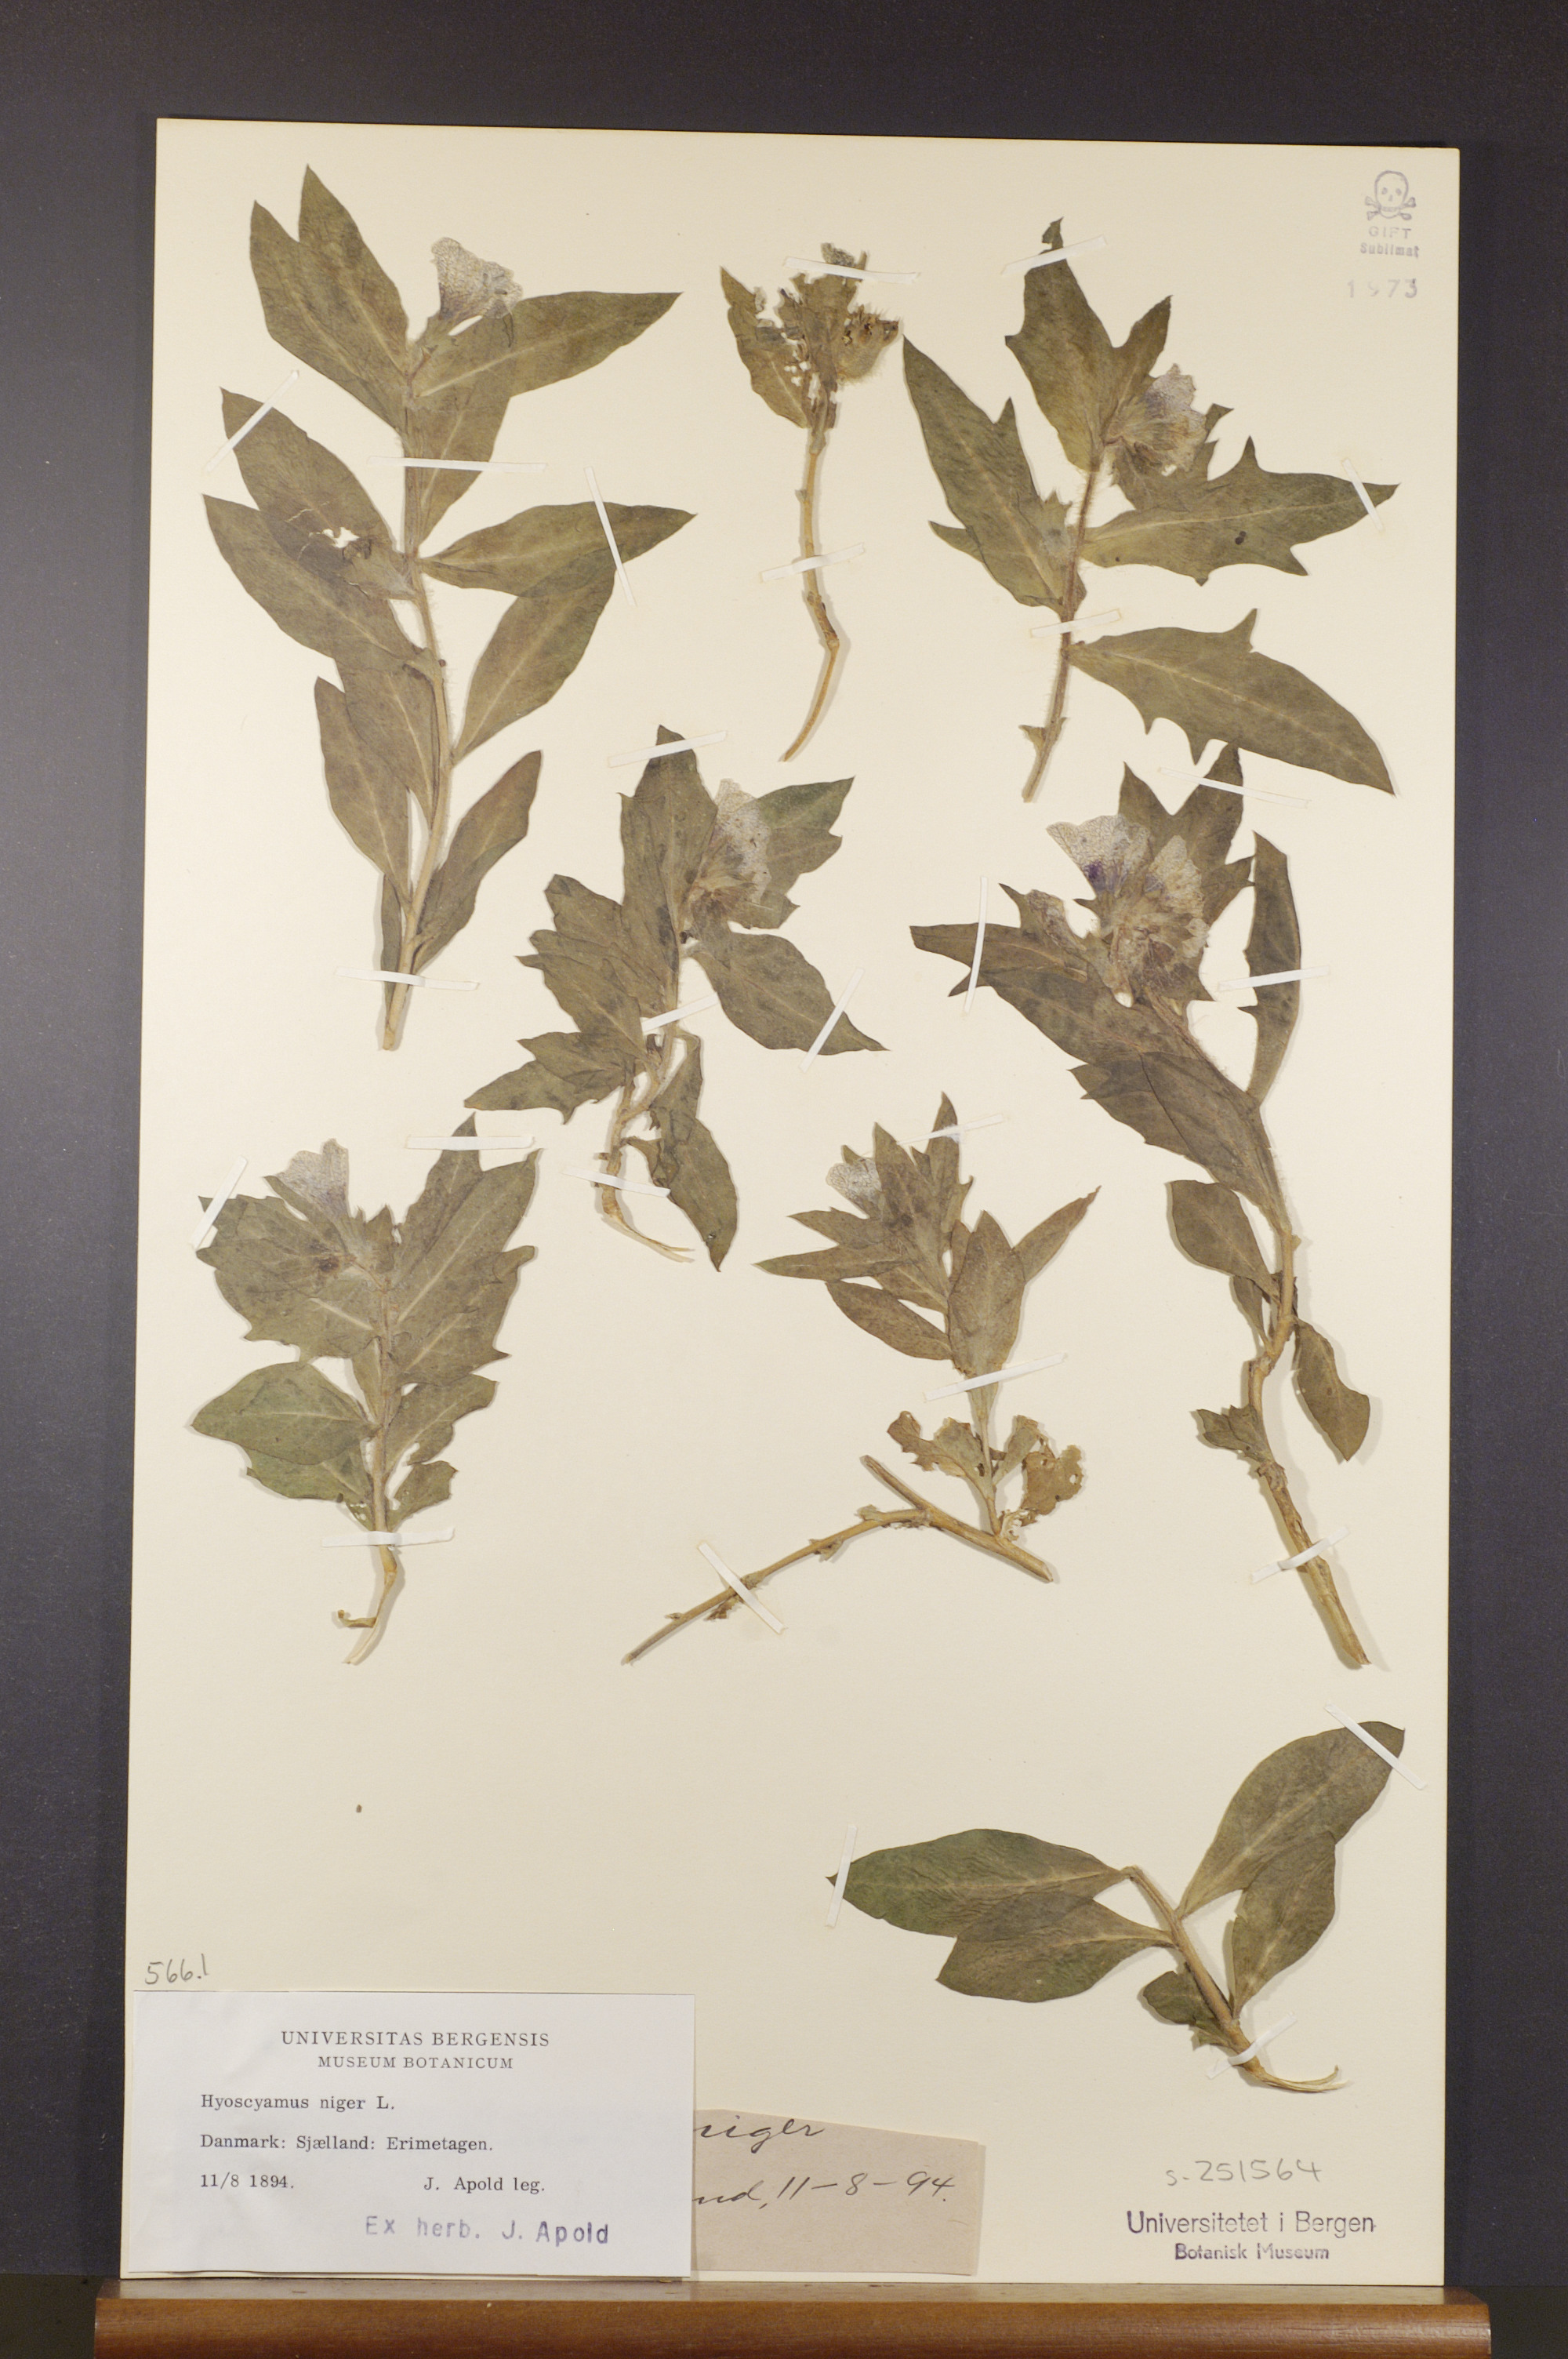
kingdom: Plantae
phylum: Tracheophyta
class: Magnoliopsida
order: Solanales
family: Solanaceae
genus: Hyoscyamus
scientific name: Hyoscyamus niger
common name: Henbane
